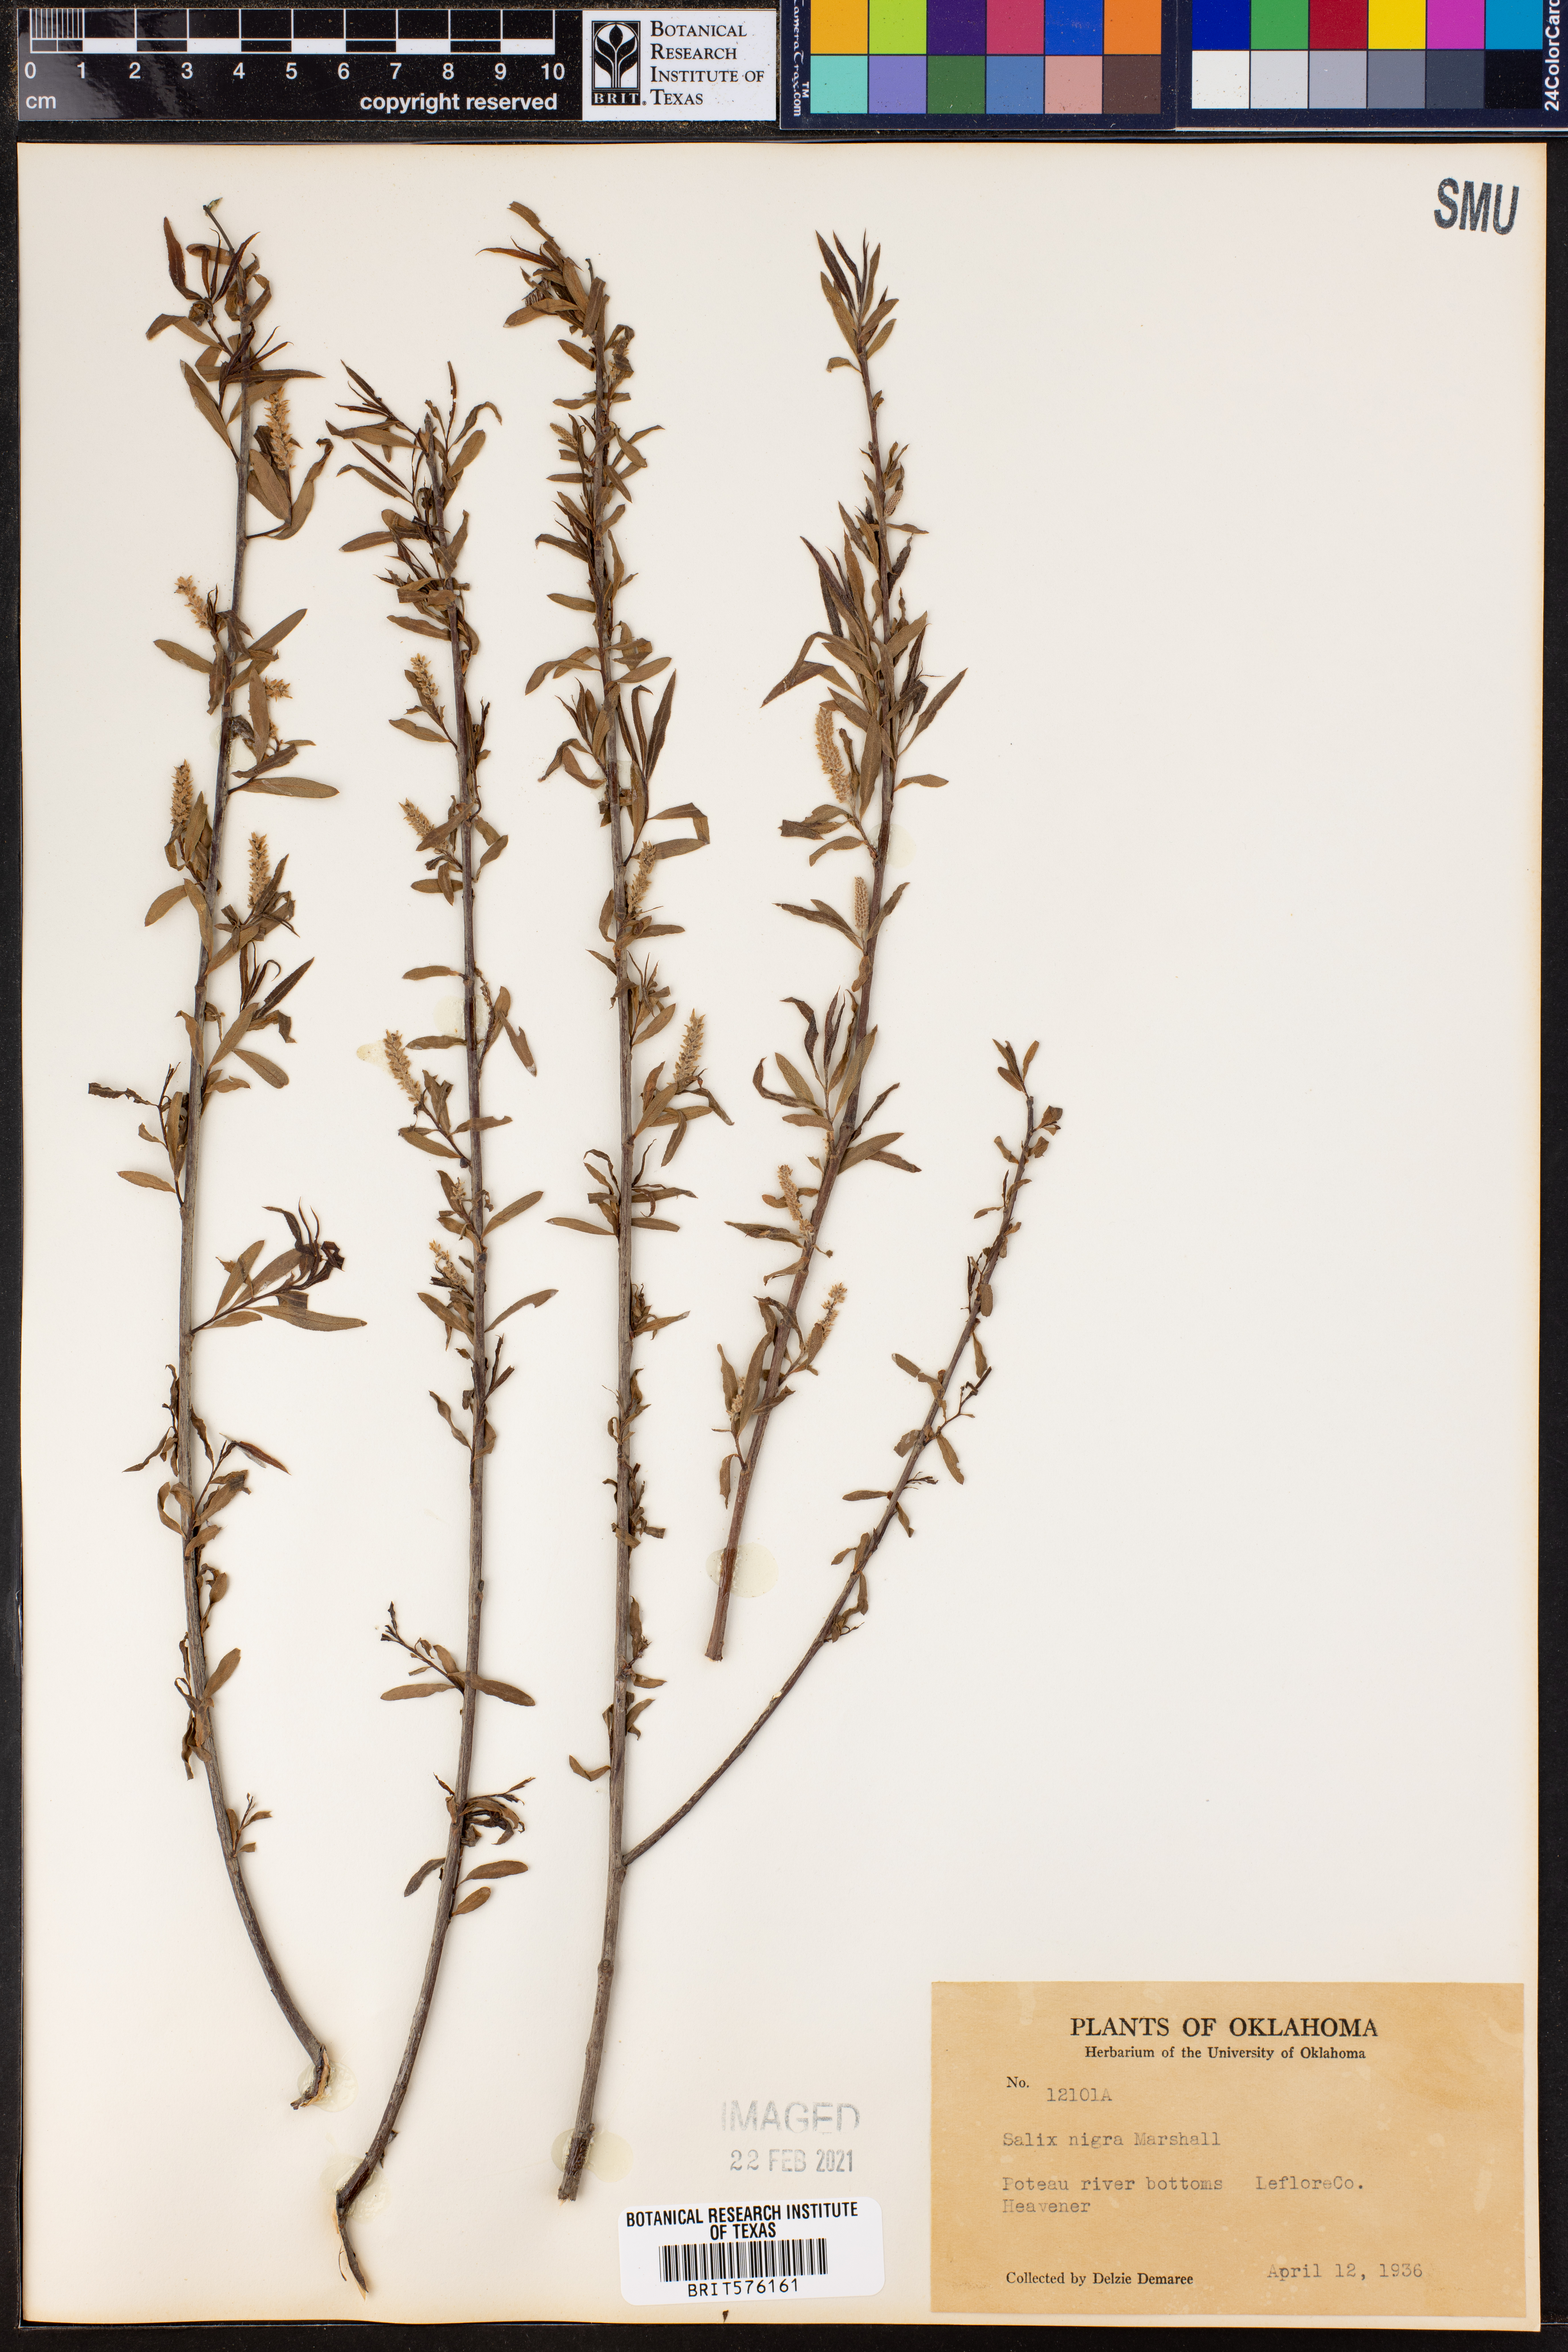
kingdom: Plantae
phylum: Tracheophyta
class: Magnoliopsida
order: Malpighiales
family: Salicaceae
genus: Salix
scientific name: Salix nigra
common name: Black willow
